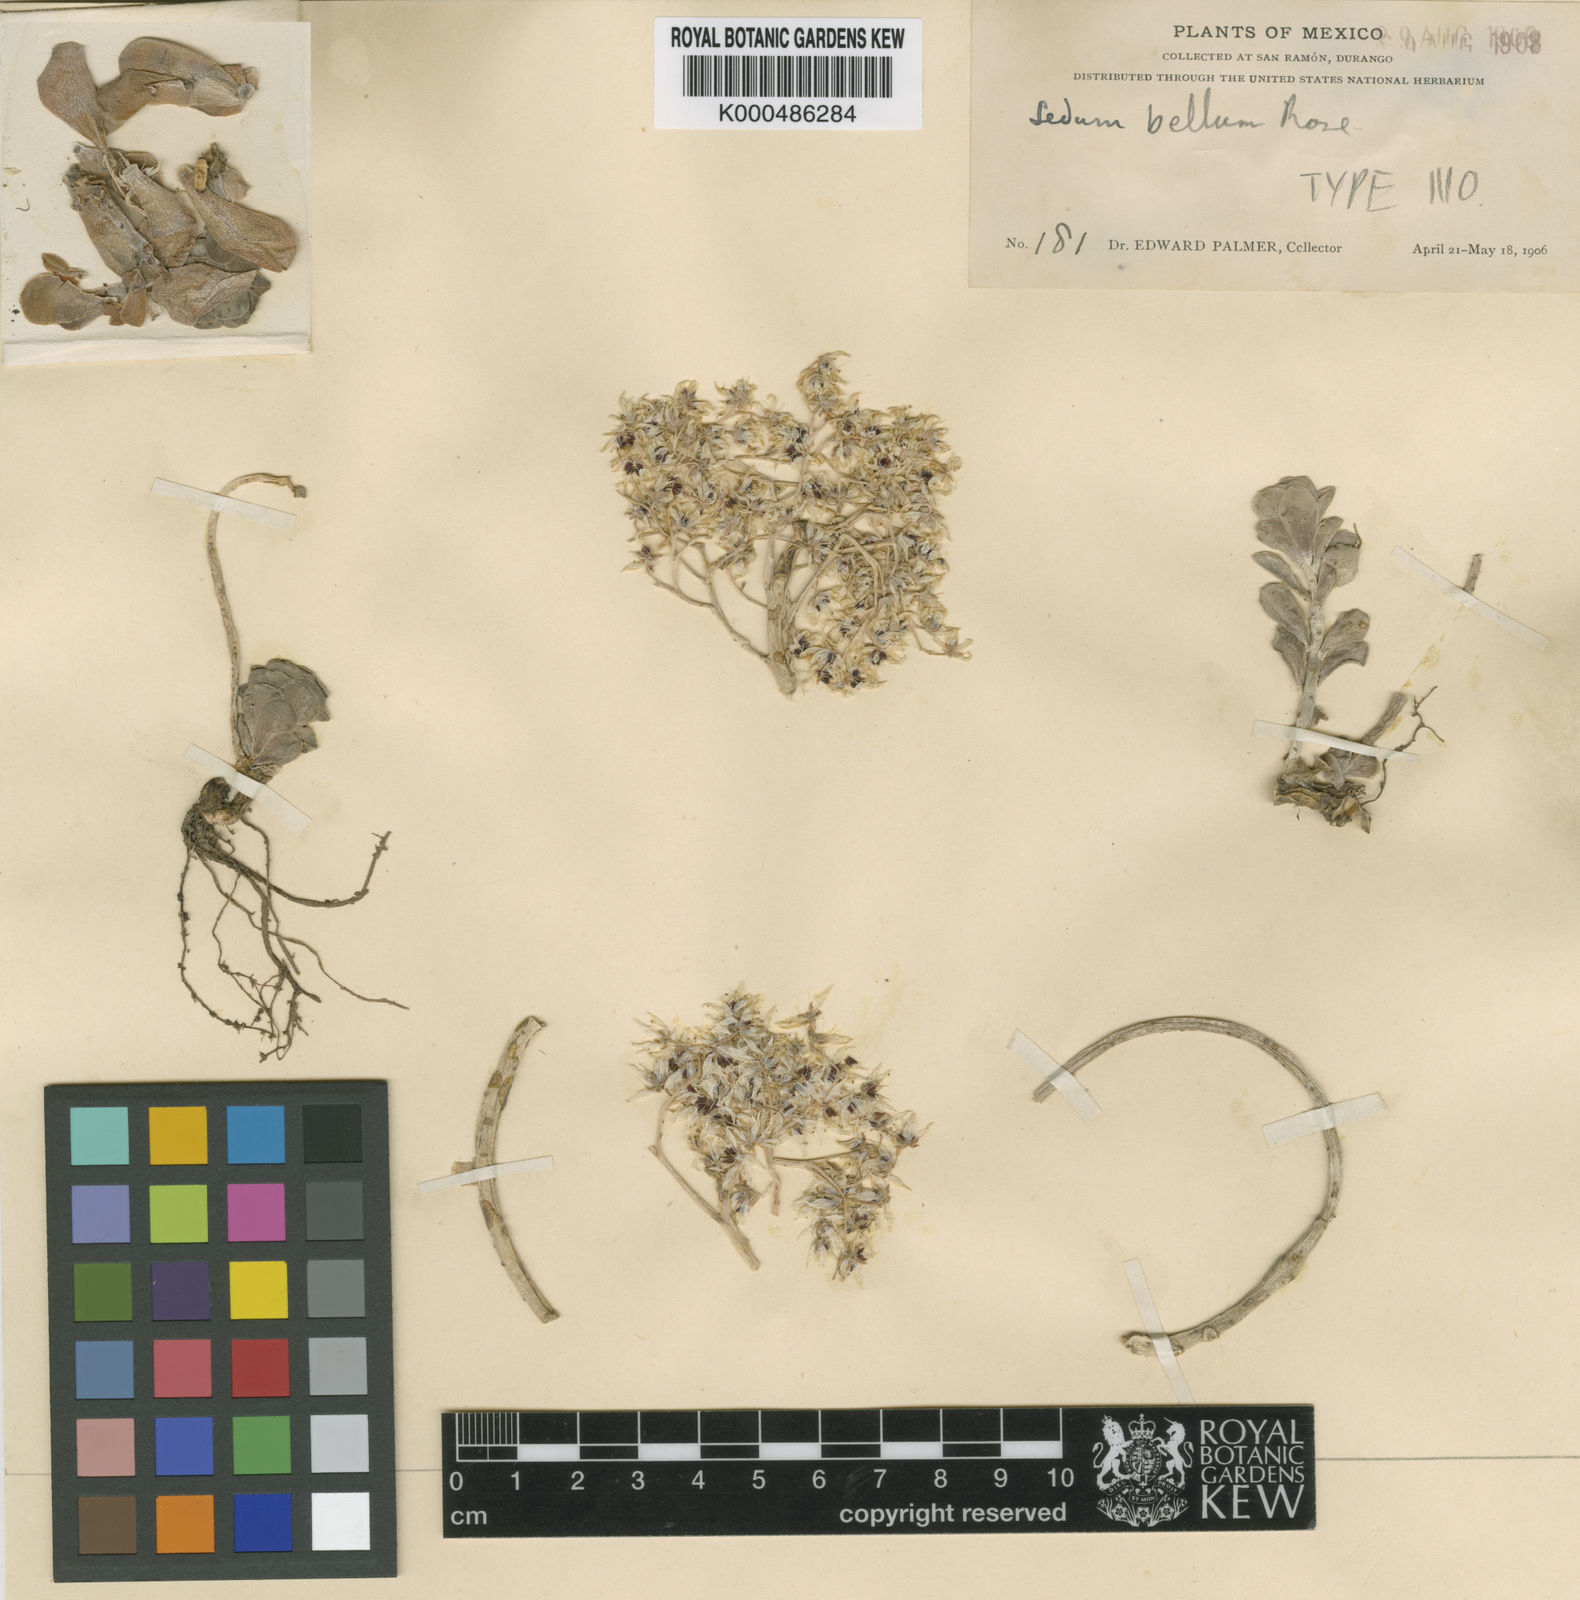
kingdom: Plantae
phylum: Tracheophyta
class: Magnoliopsida
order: Saxifragales
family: Crassulaceae
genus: Sedum
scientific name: Sedum
